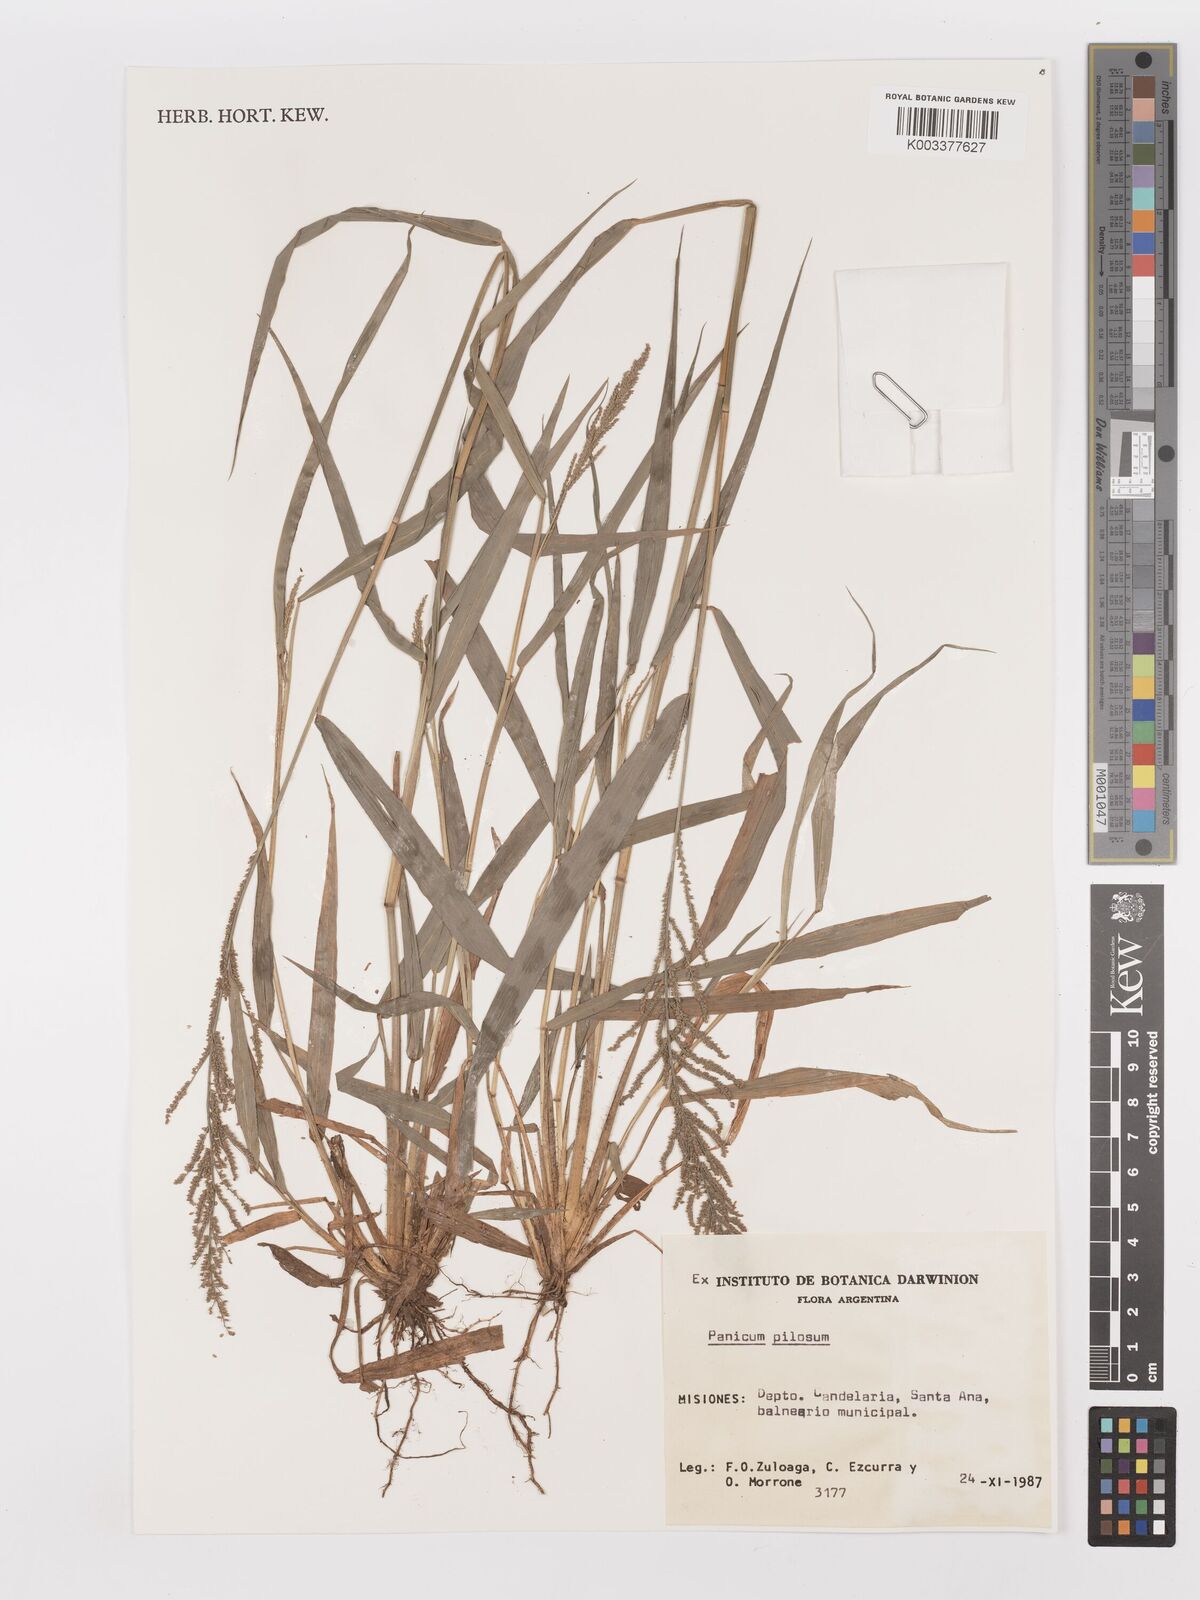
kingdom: Plantae
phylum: Tracheophyta
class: Liliopsida
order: Poales
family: Poaceae
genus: Rugoloa
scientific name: Rugoloa pilosa
